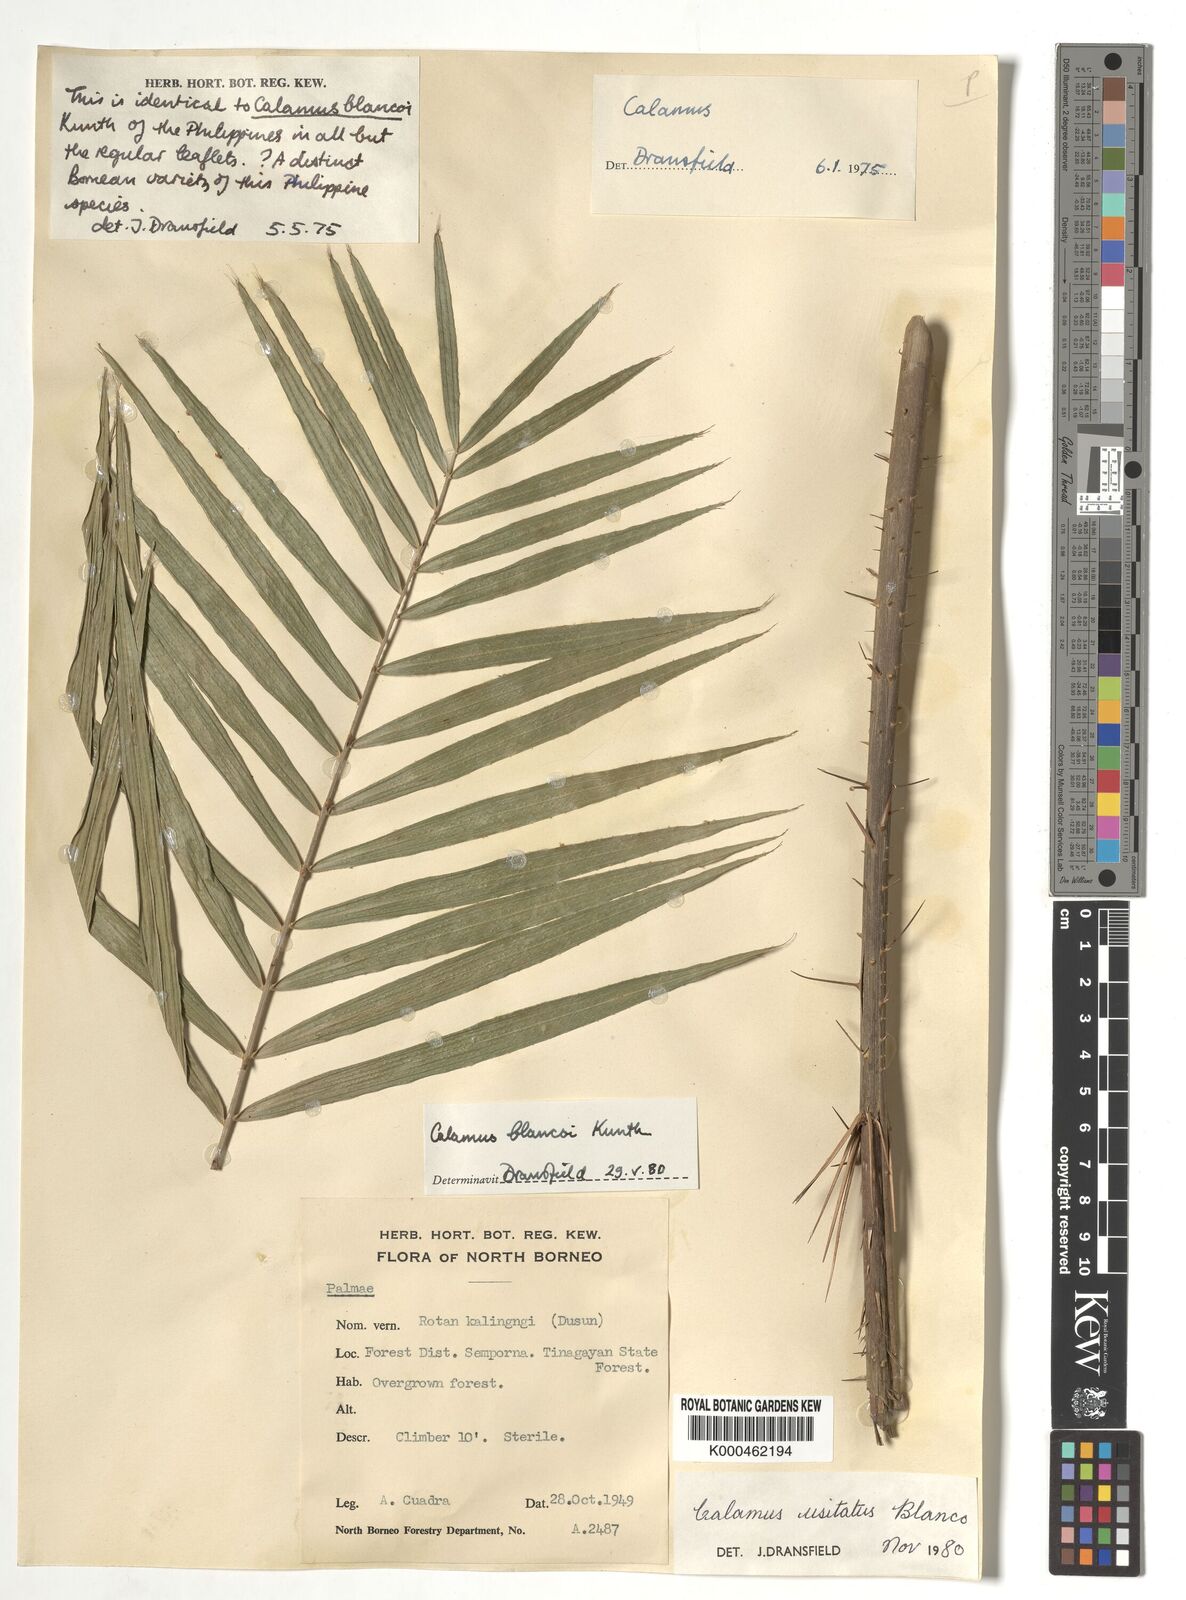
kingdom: Plantae
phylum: Tracheophyta
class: Liliopsida
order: Arecales
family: Arecaceae
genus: Calamus
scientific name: Calamus usitatus
